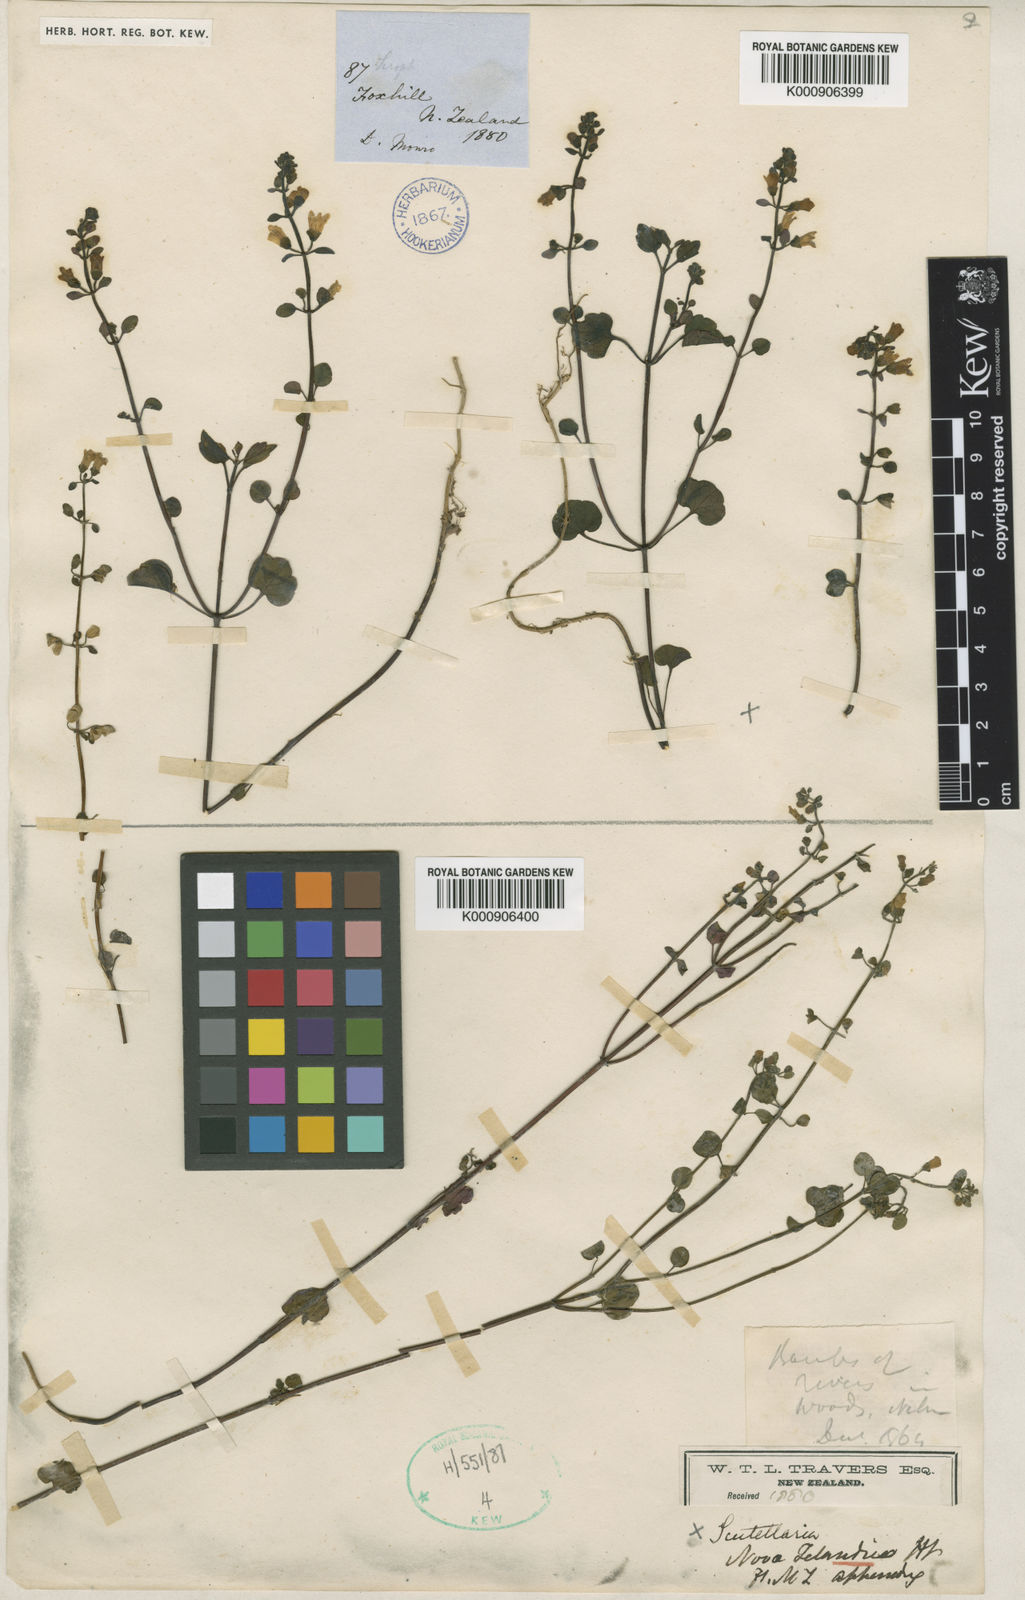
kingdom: Plantae
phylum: Tracheophyta
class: Magnoliopsida
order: Lamiales
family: Lamiaceae
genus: Scutellaria
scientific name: Scutellaria novae-zelandiae
